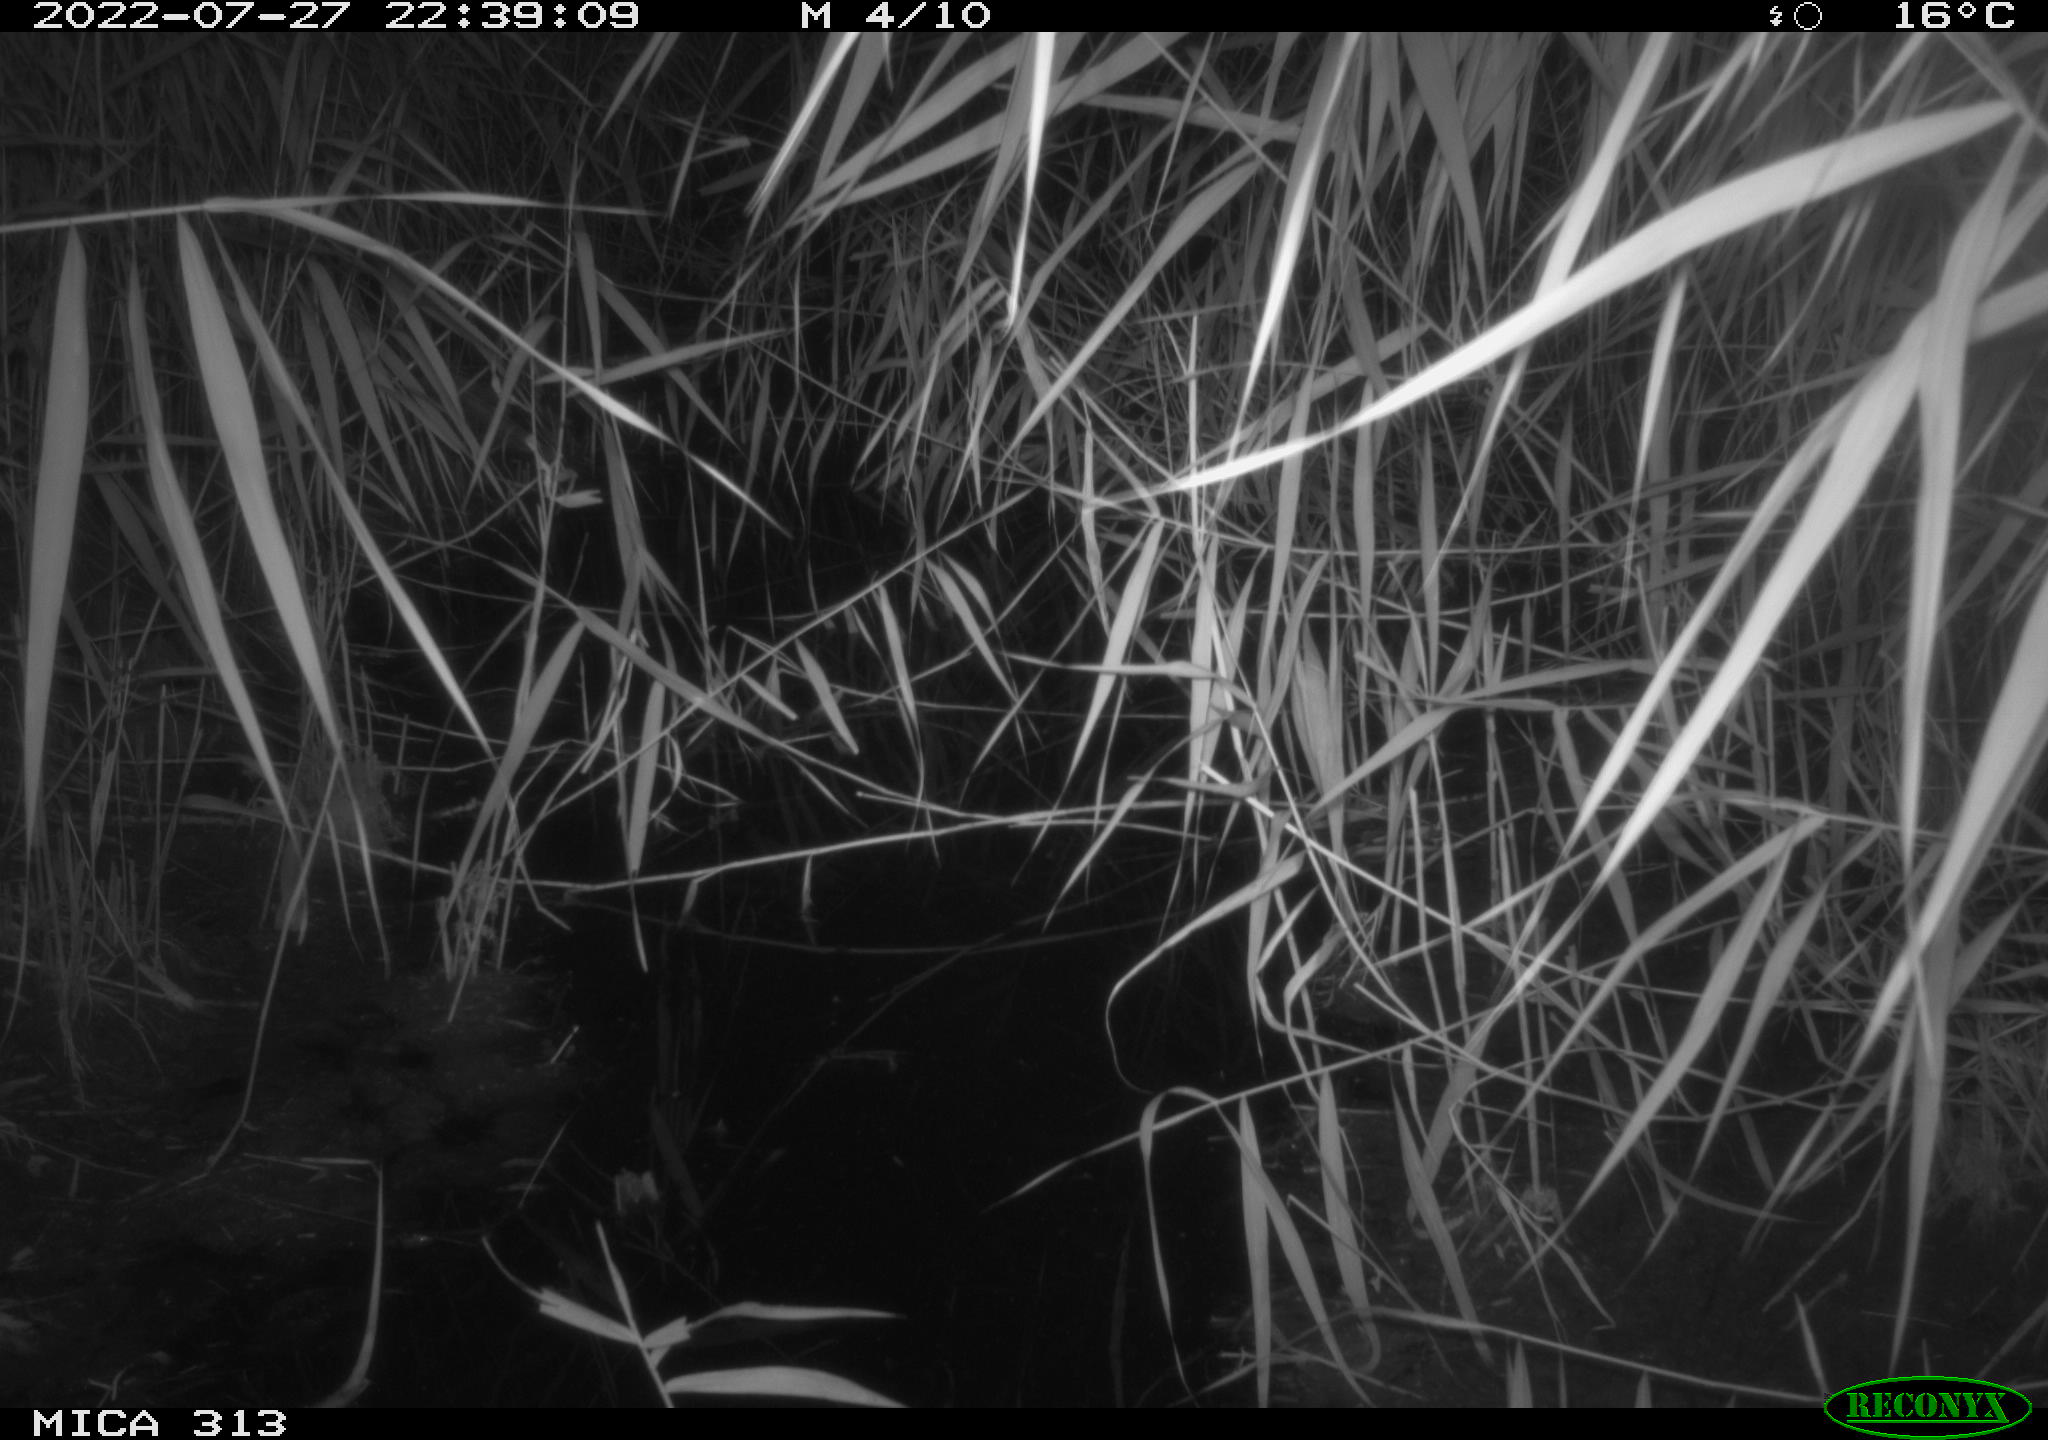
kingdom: Animalia
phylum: Chordata
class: Mammalia
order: Rodentia
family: Muridae
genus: Rattus
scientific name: Rattus norvegicus
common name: Brown rat
